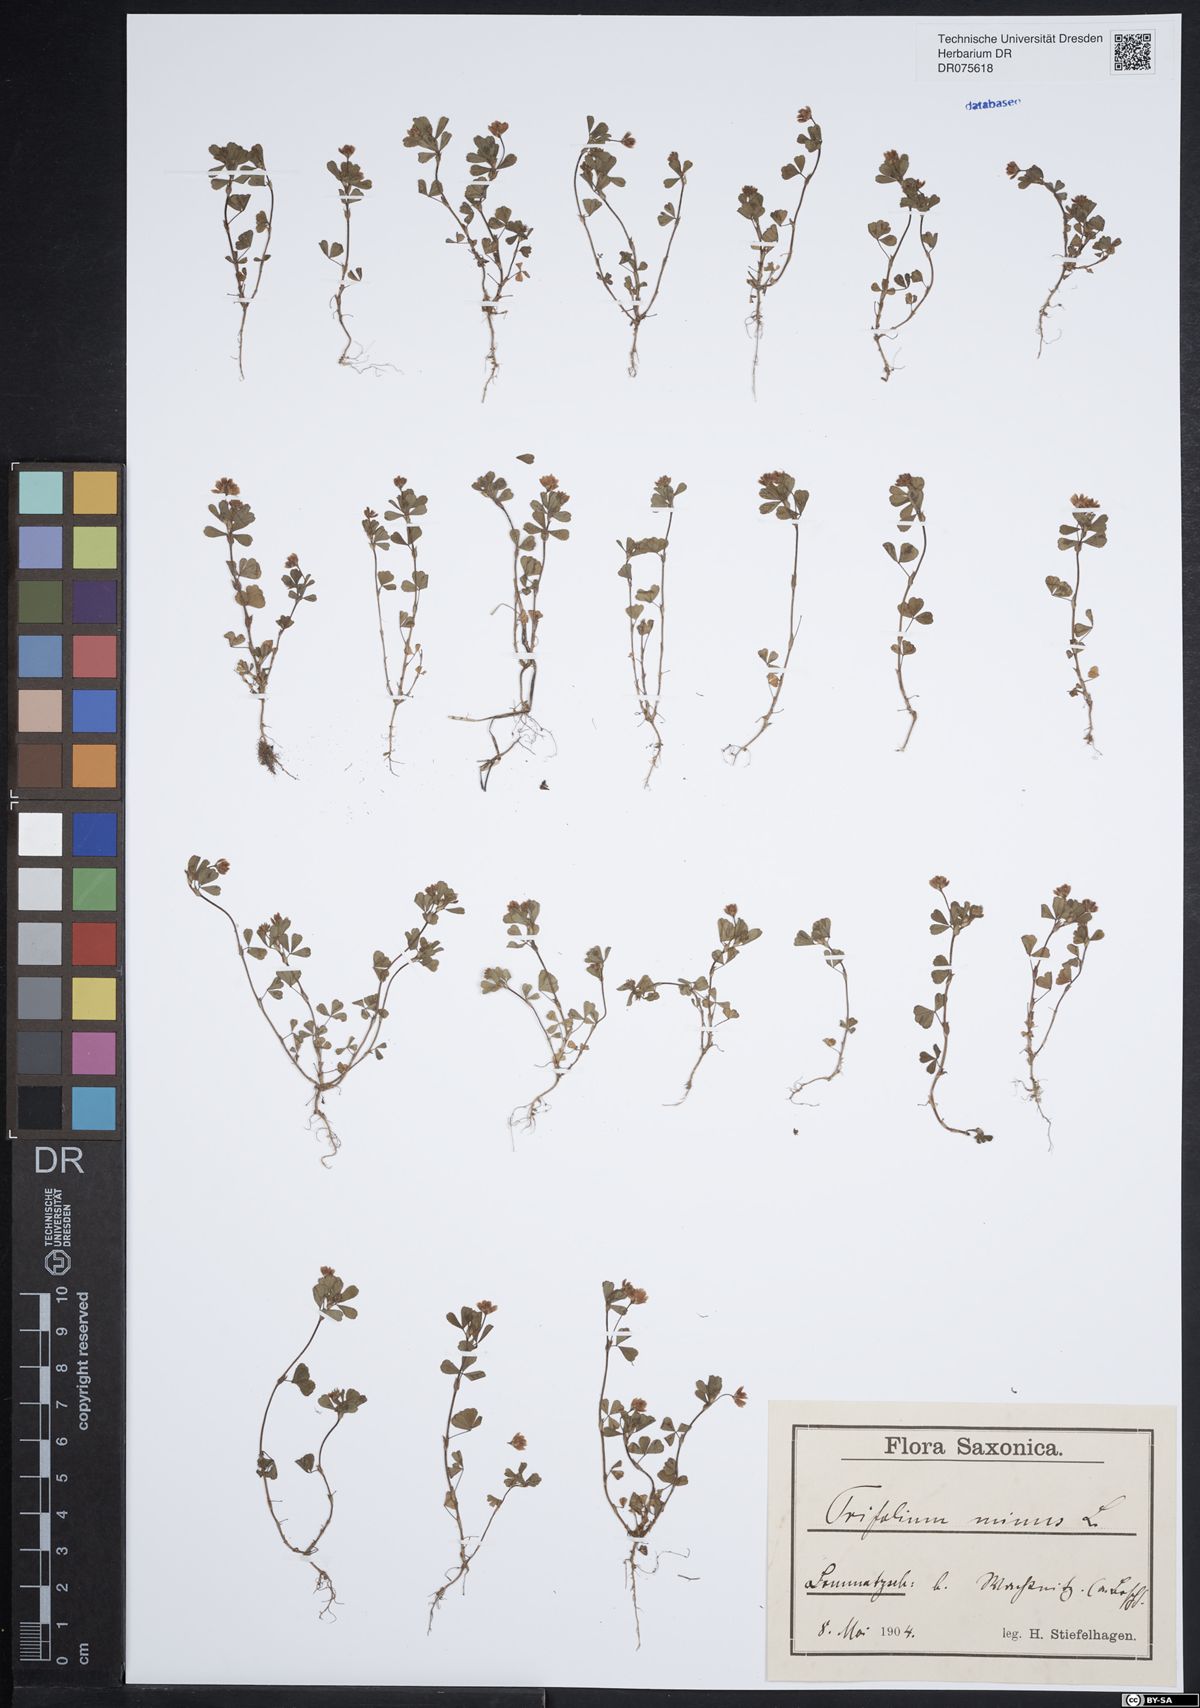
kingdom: Plantae
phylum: Tracheophyta
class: Magnoliopsida
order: Fabales
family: Fabaceae
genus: Trifolium
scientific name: Trifolium dubium
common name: Suckling clover
